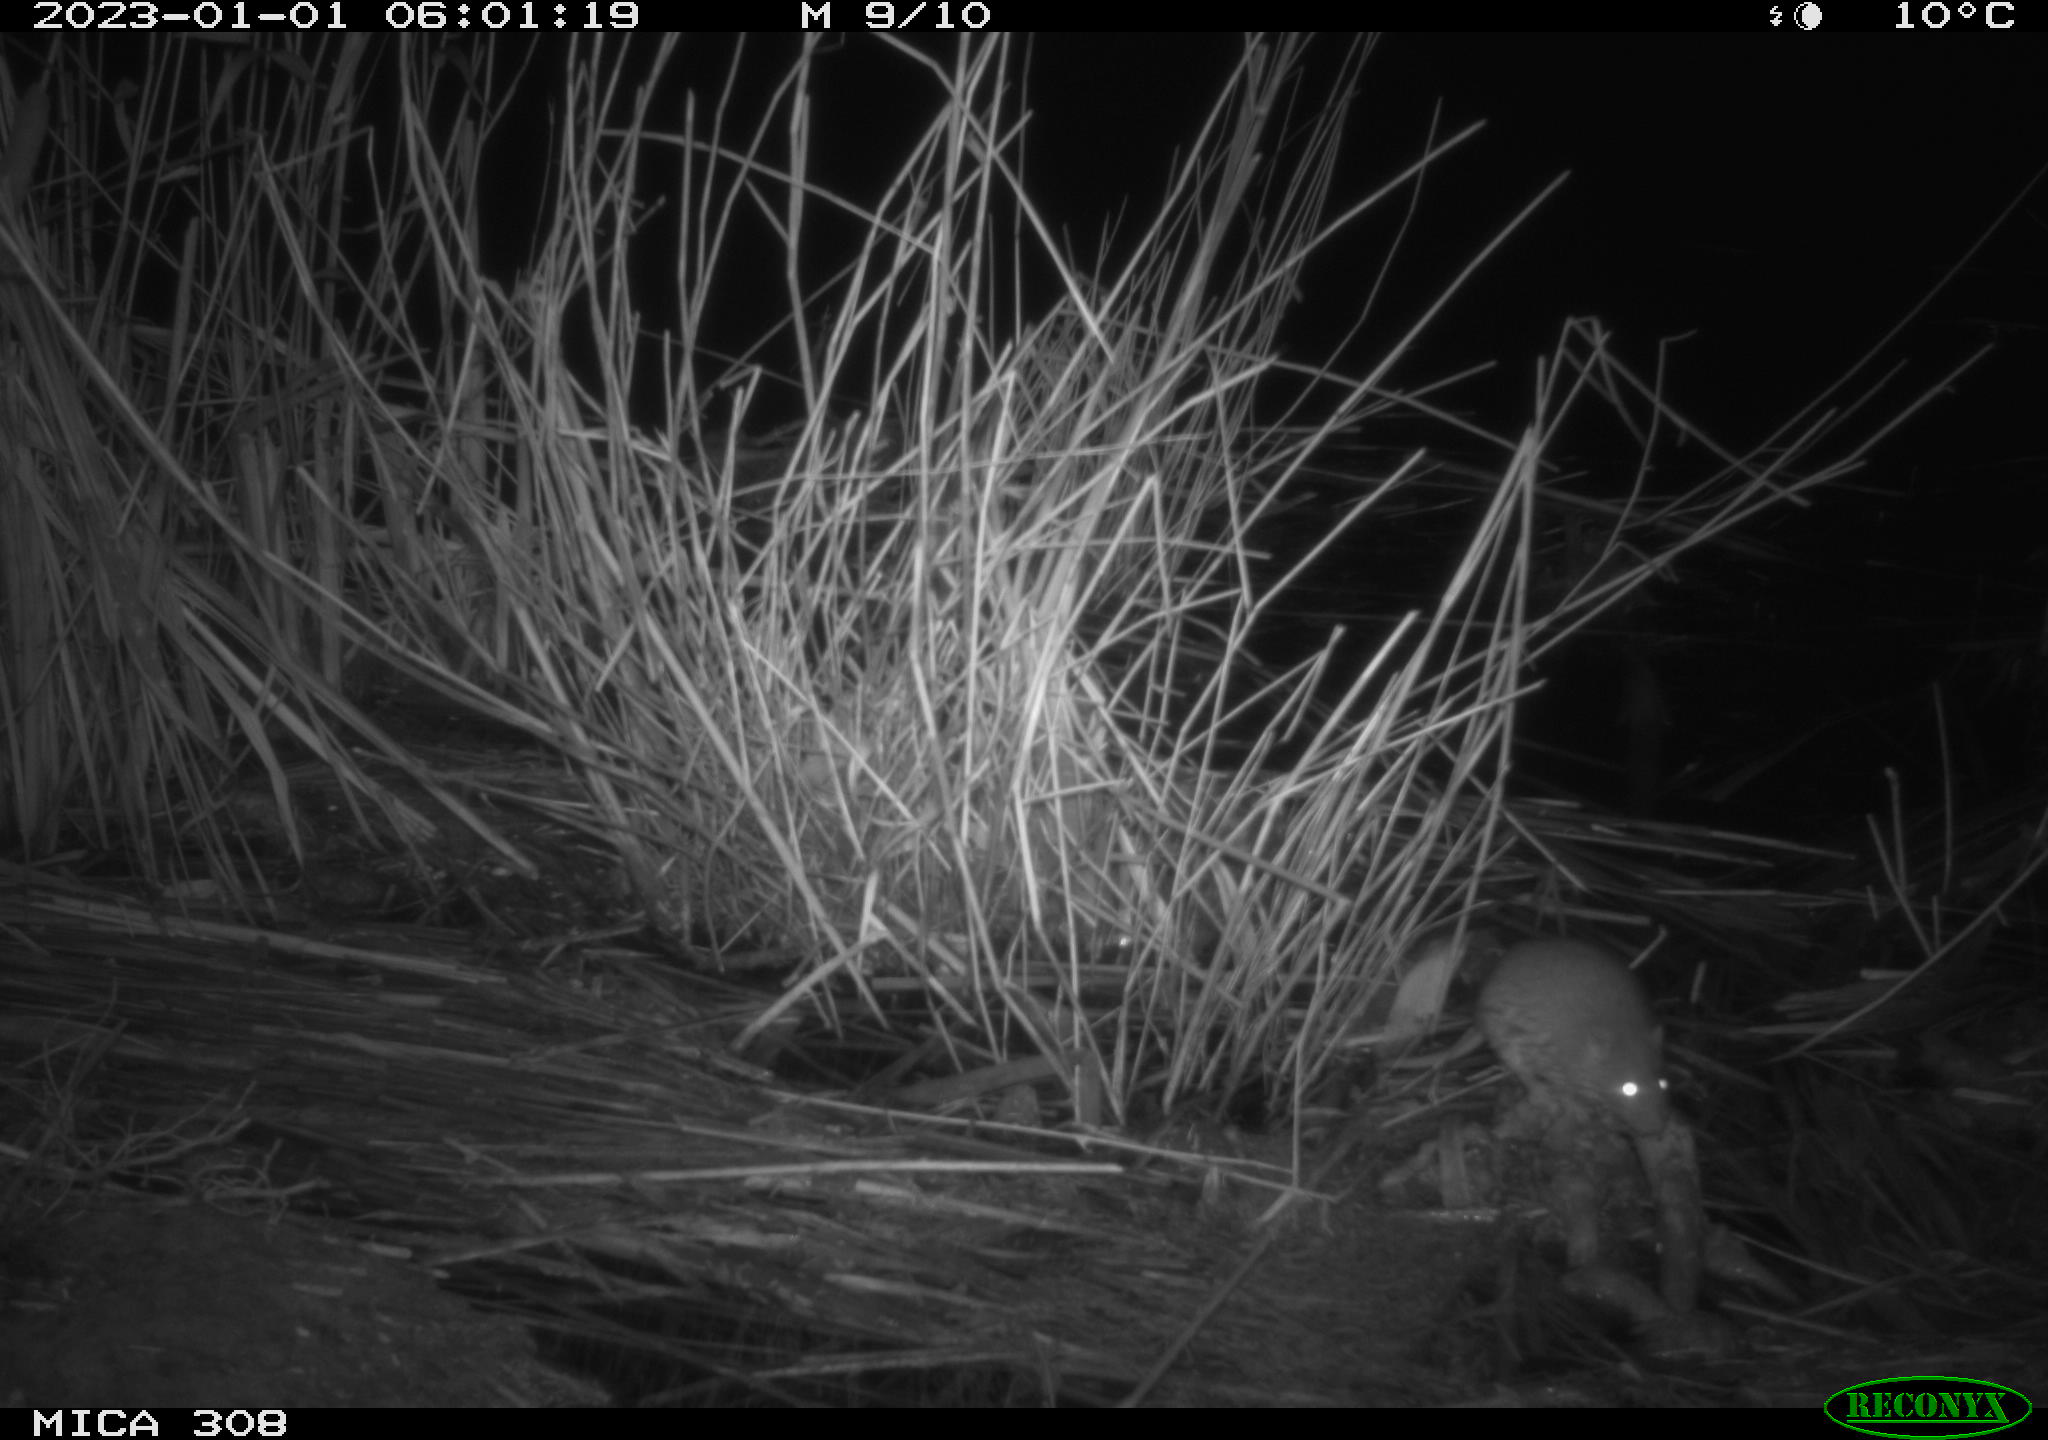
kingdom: Animalia
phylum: Chordata
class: Mammalia
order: Rodentia
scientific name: Rodentia
